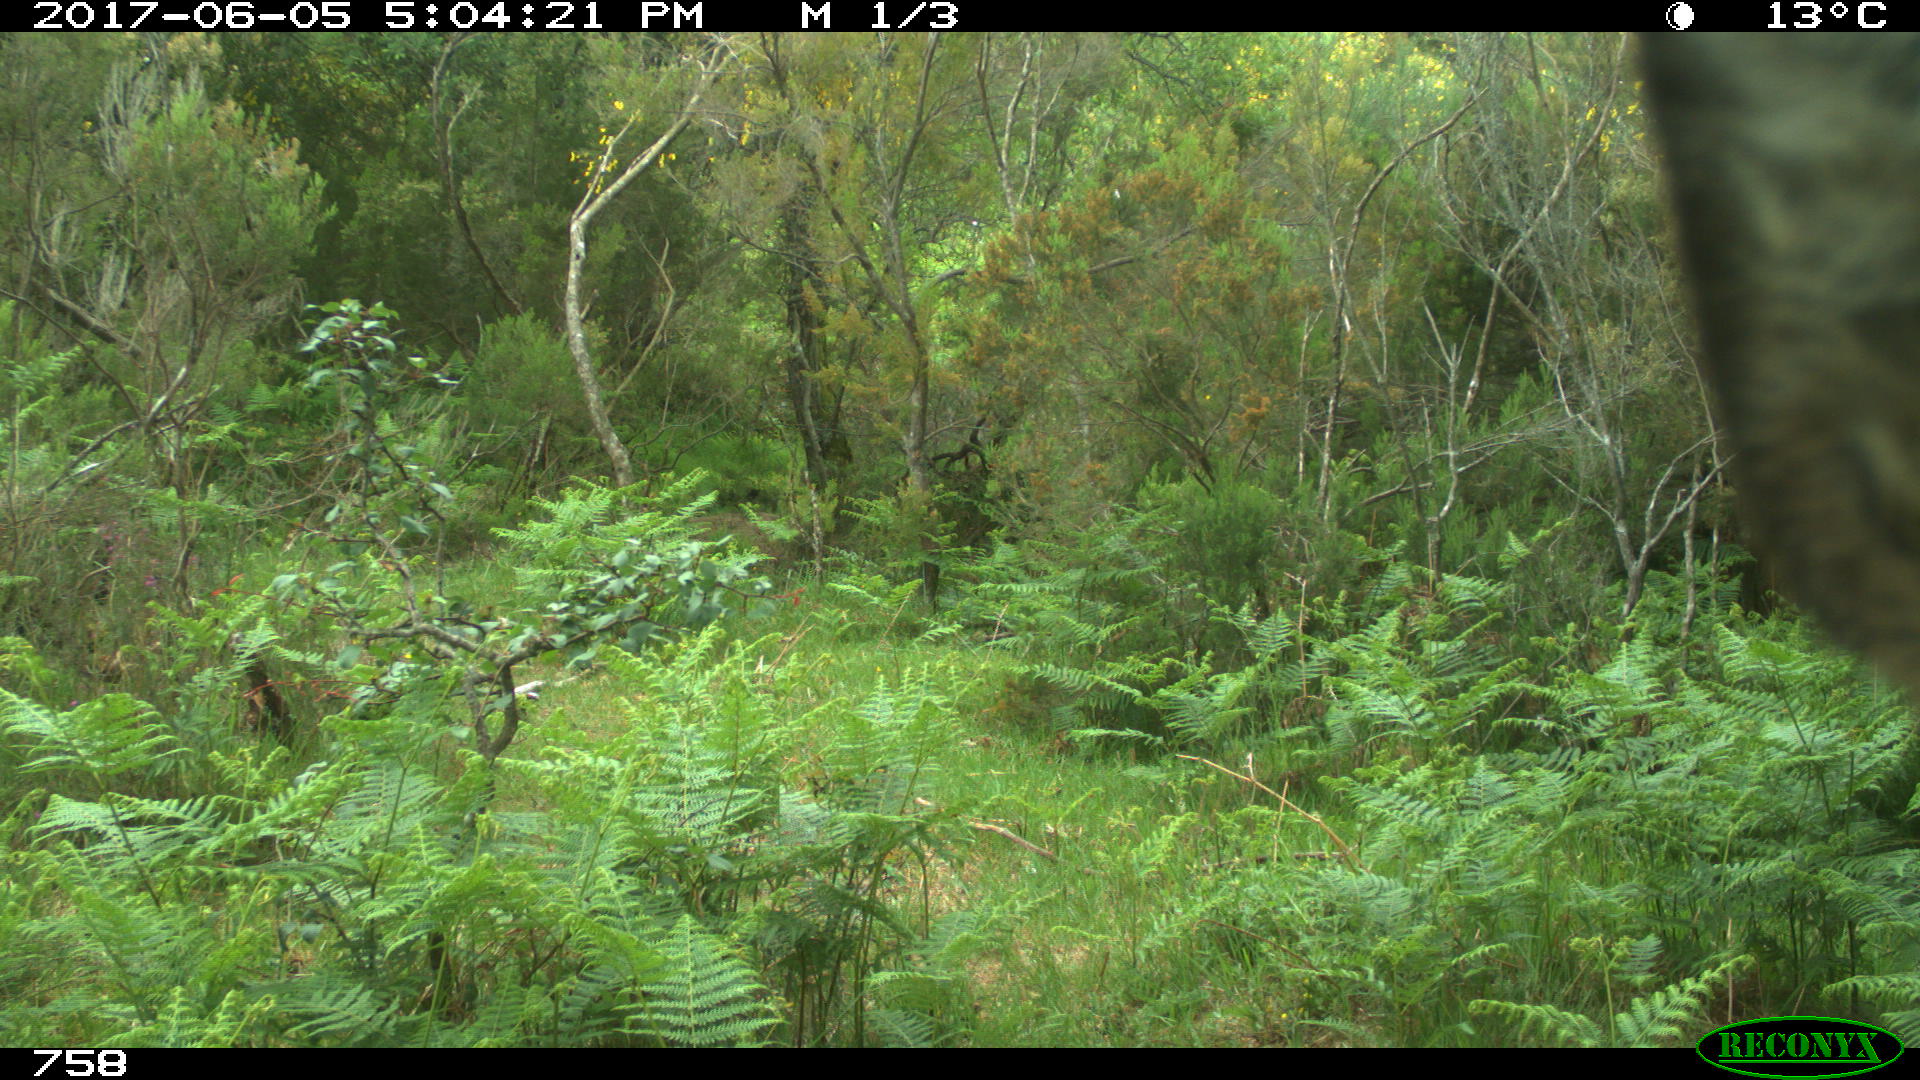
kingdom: Animalia
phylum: Chordata
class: Mammalia
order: Artiodactyla
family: Cervidae
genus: Capreolus
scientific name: Capreolus capreolus
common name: Western roe deer
